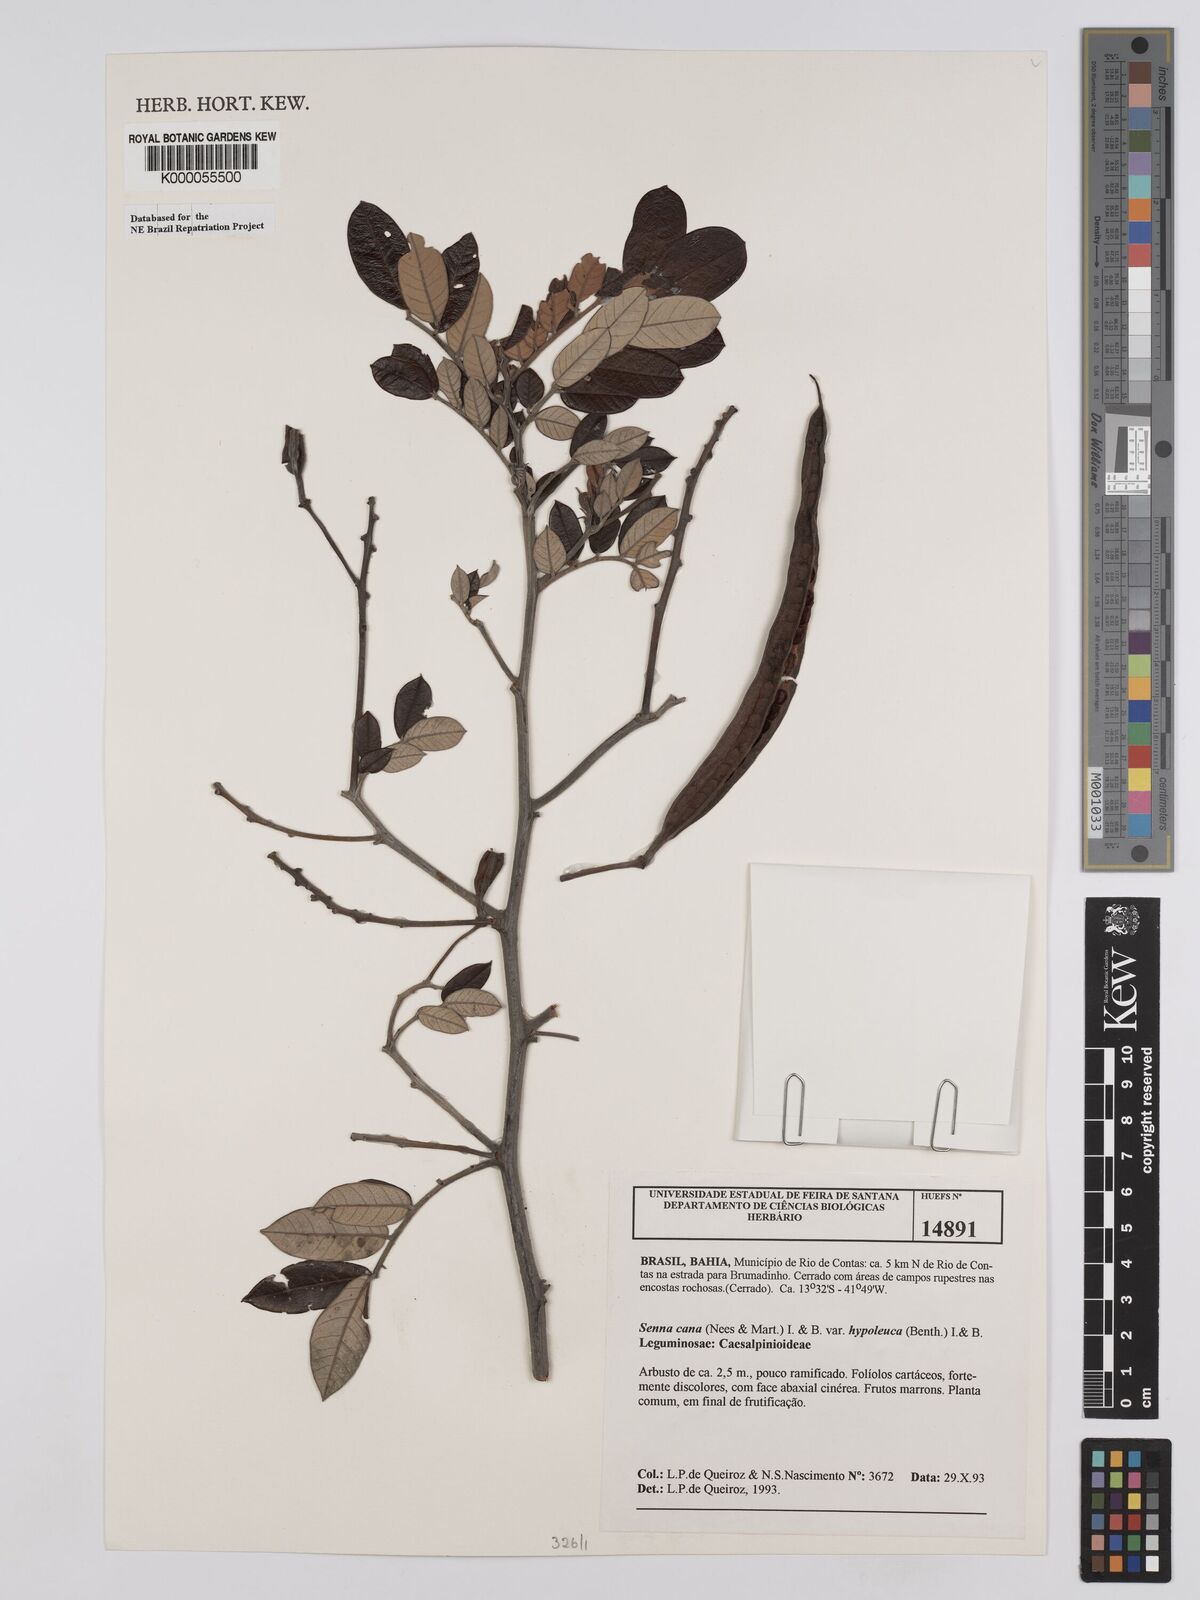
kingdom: Plantae
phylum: Tracheophyta
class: Magnoliopsida
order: Fabales
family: Fabaceae
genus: Senna
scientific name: Senna cana
